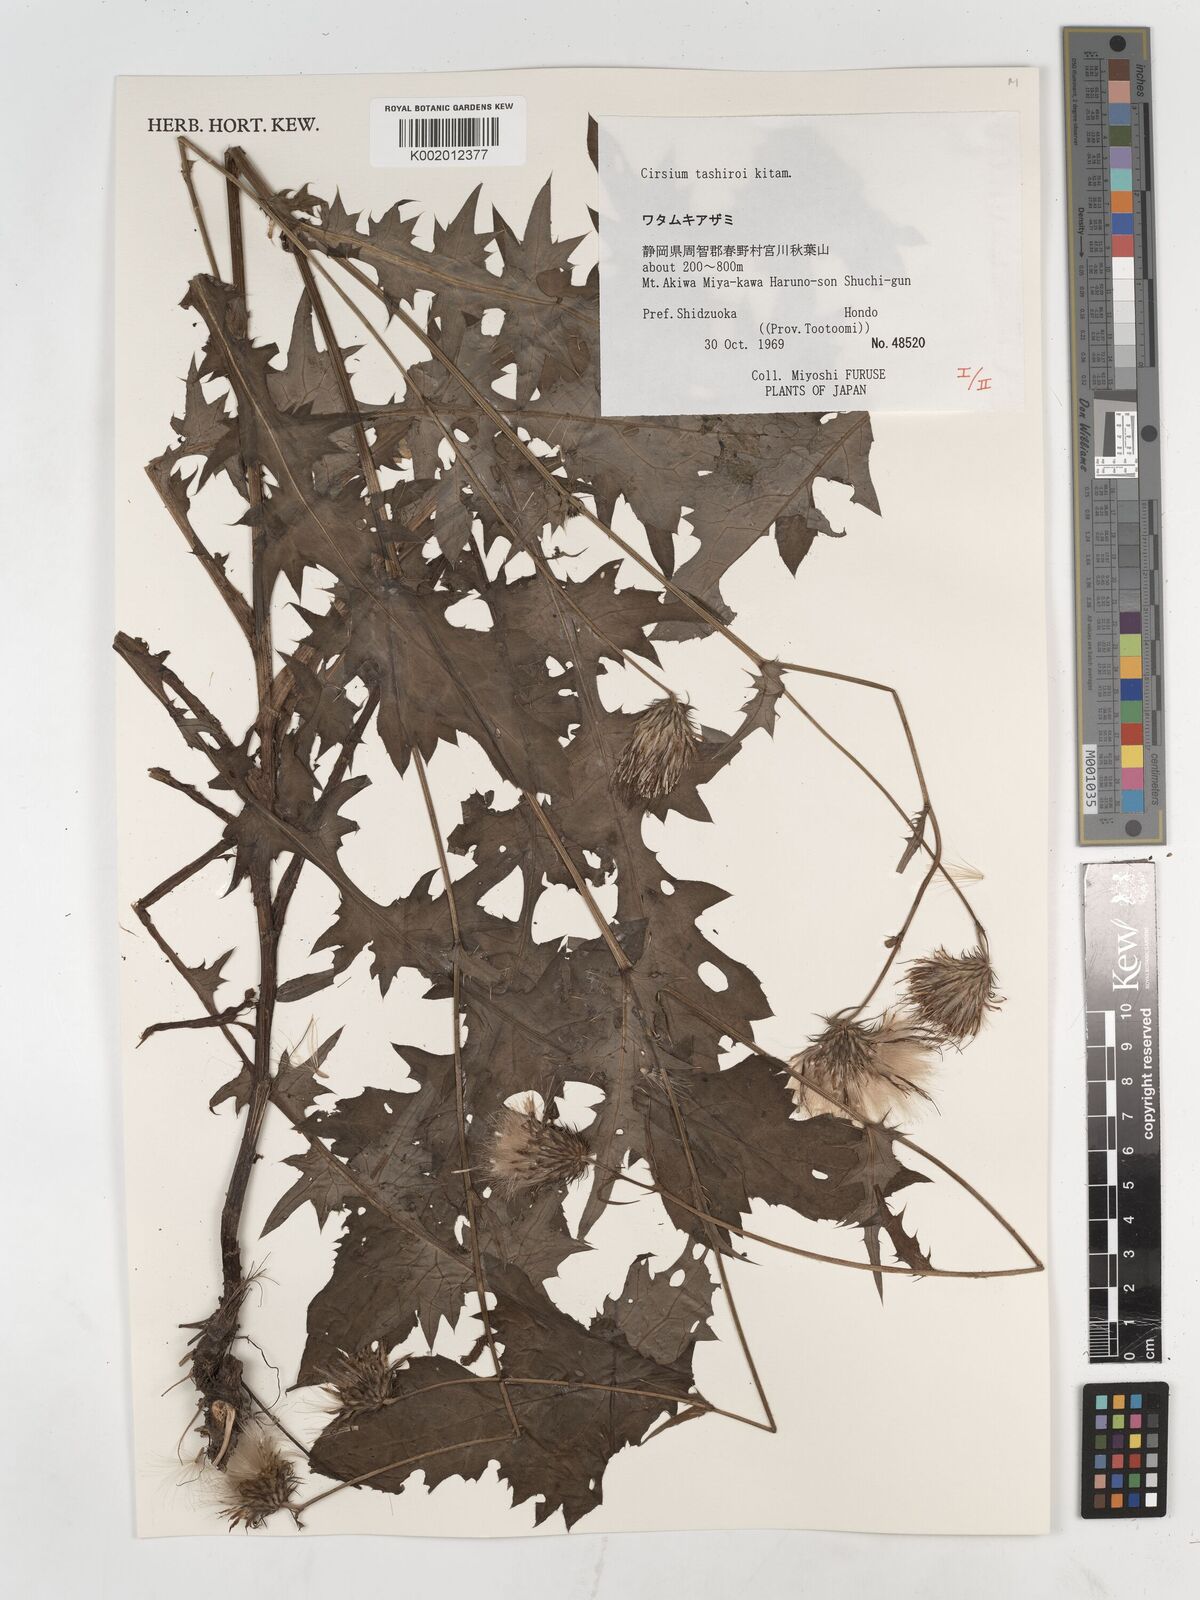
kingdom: Plantae
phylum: Tracheophyta
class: Magnoliopsida
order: Asterales
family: Asteraceae
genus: Cirsium
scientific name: Cirsium tashiroi
